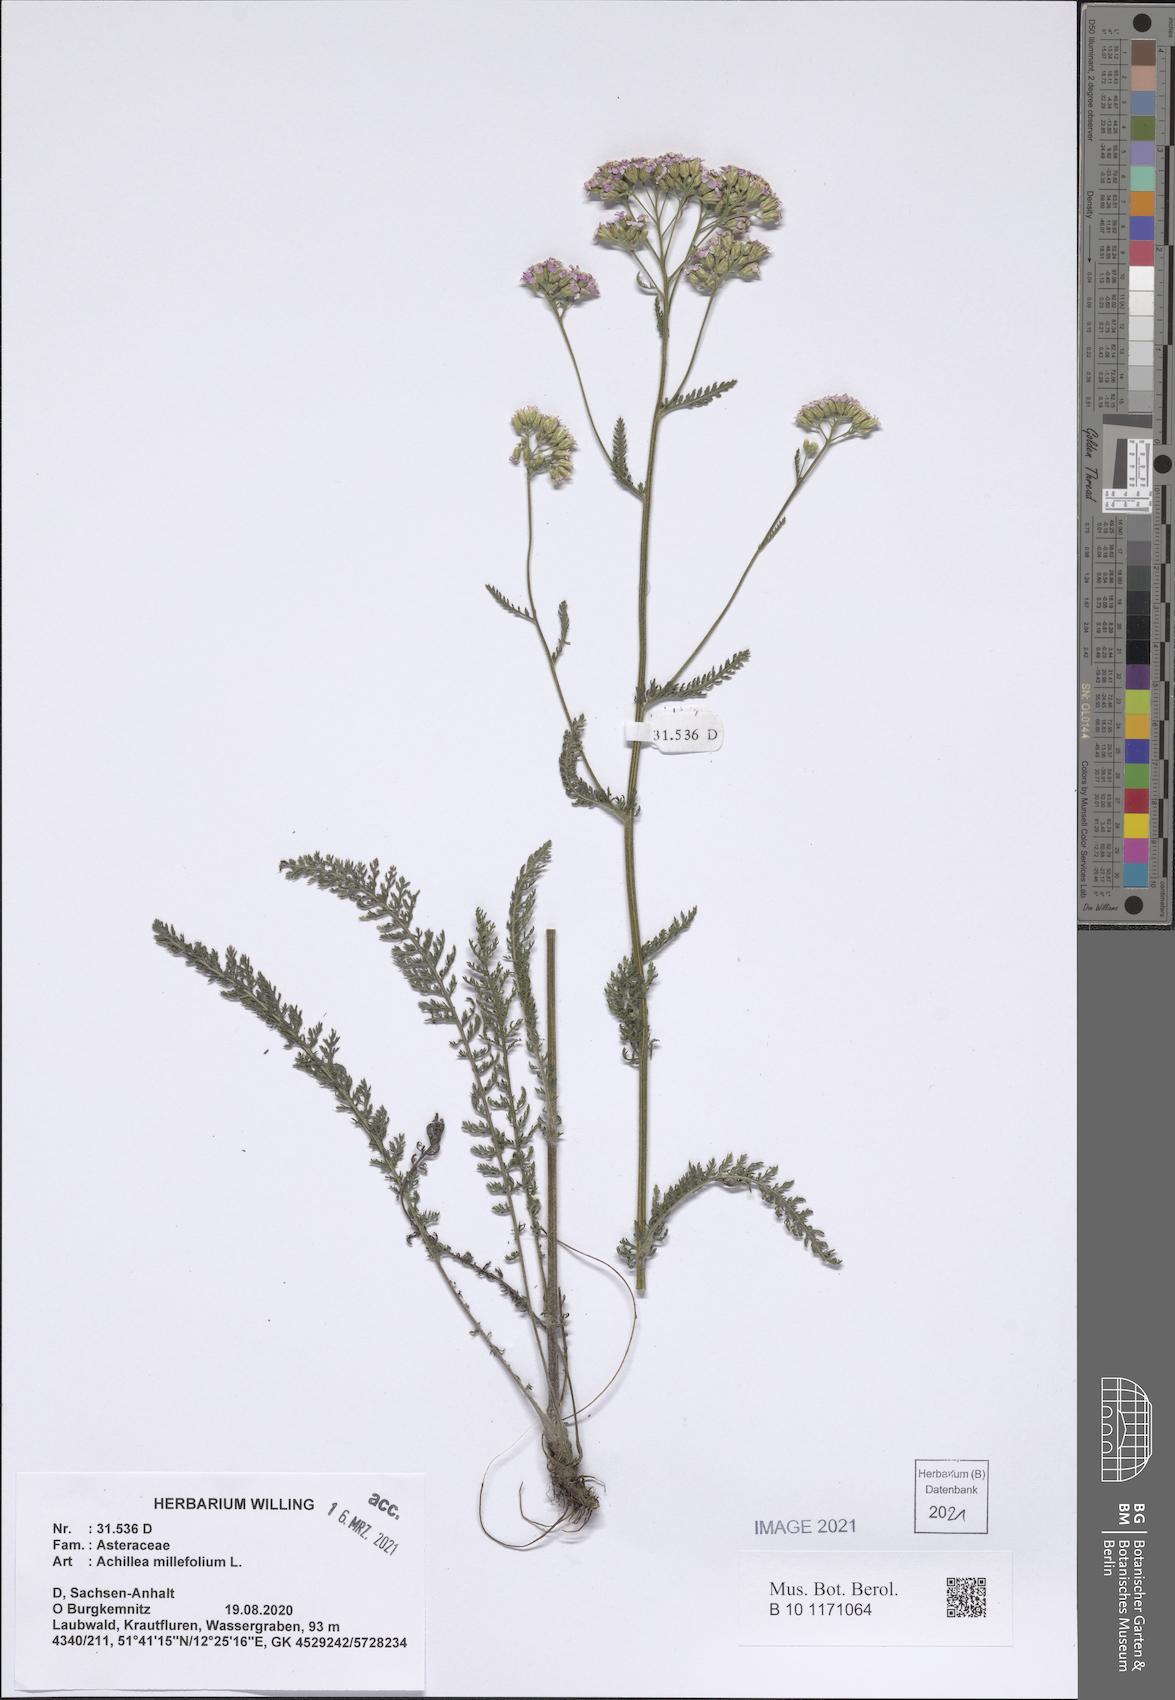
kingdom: Plantae
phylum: Tracheophyta
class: Magnoliopsida
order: Asterales
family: Asteraceae
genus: Achillea
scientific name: Achillea millefolium
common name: Yarrow
